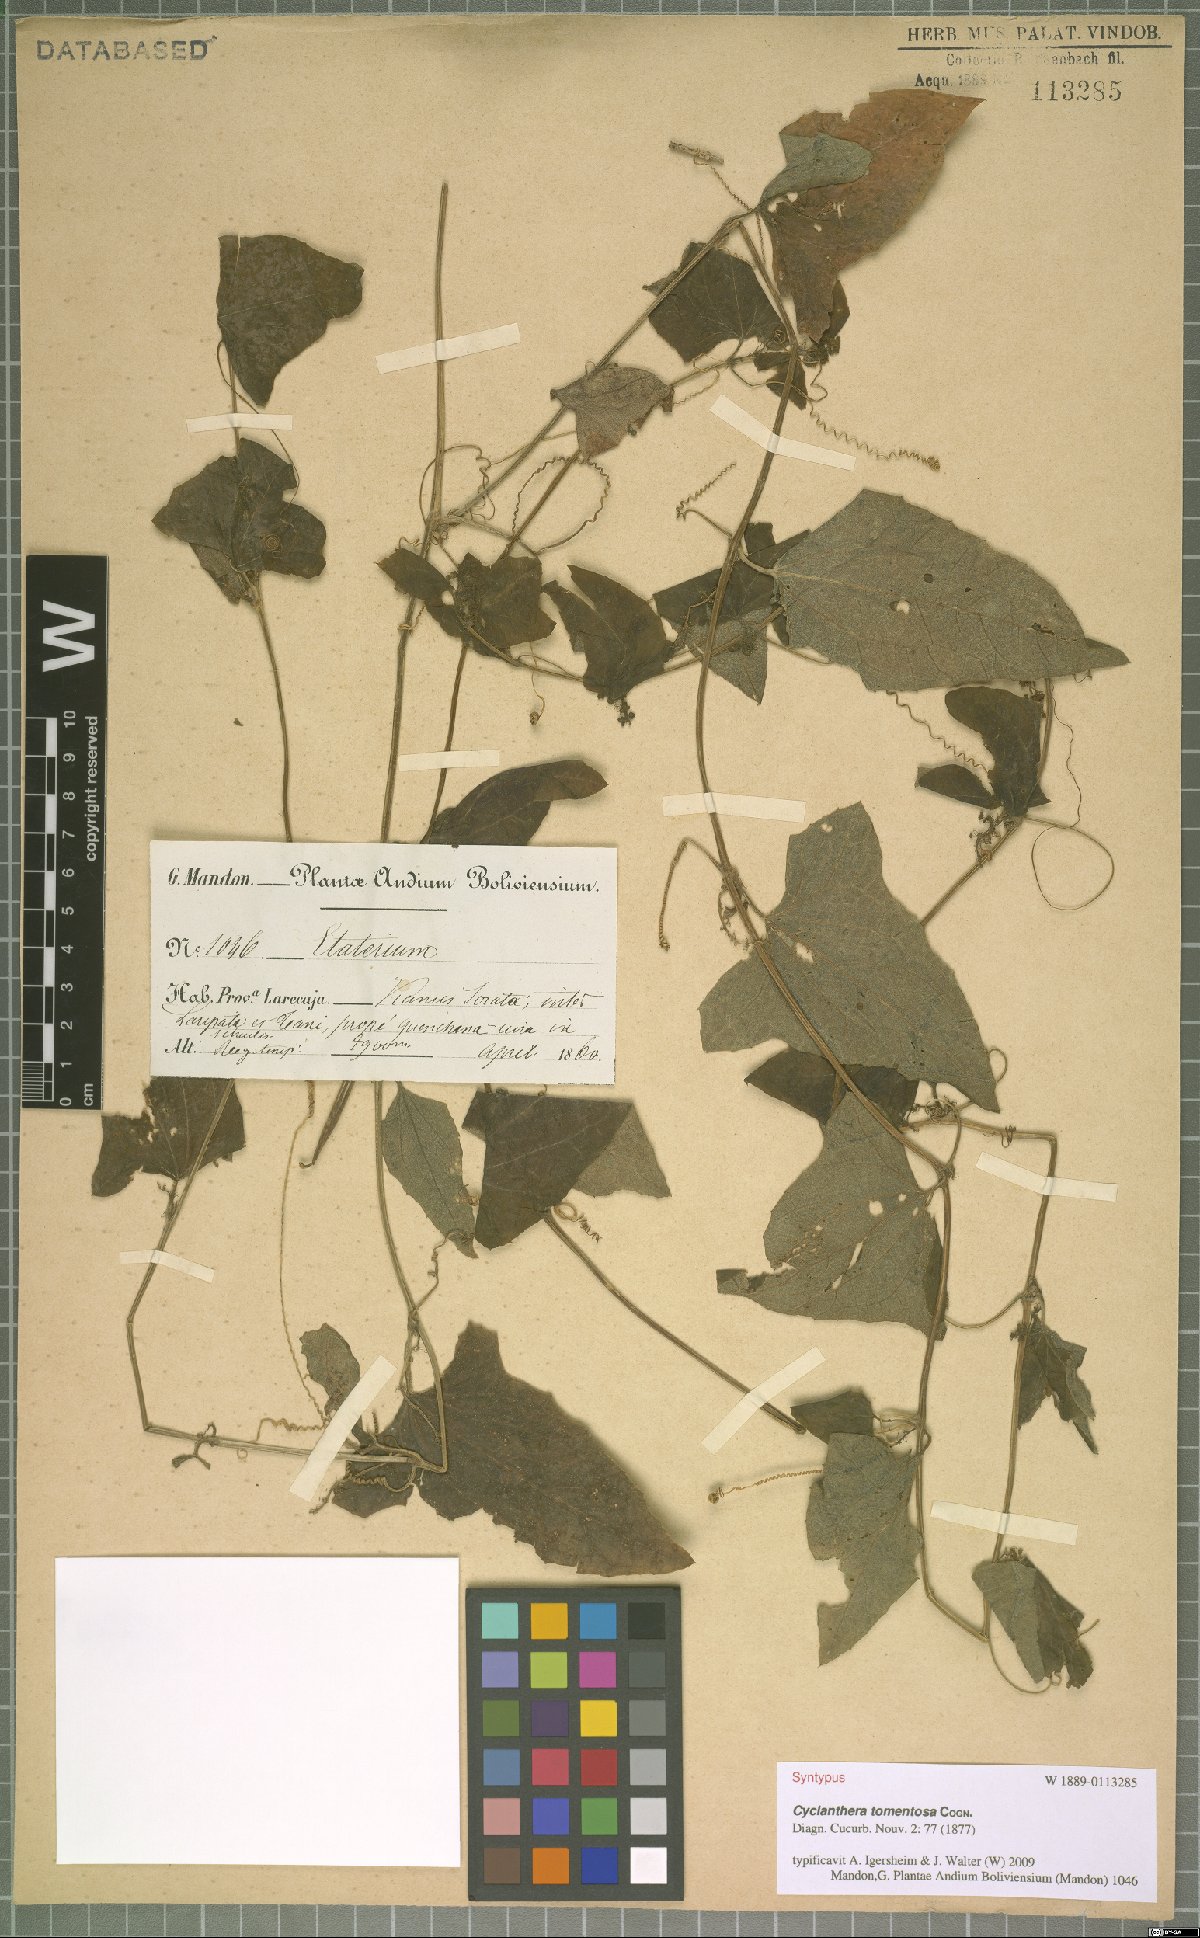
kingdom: Plantae
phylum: Tracheophyta
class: Magnoliopsida
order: Cucurbitales
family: Cucurbitaceae
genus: Cyclanthera
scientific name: Cyclanthera brachybotrys
